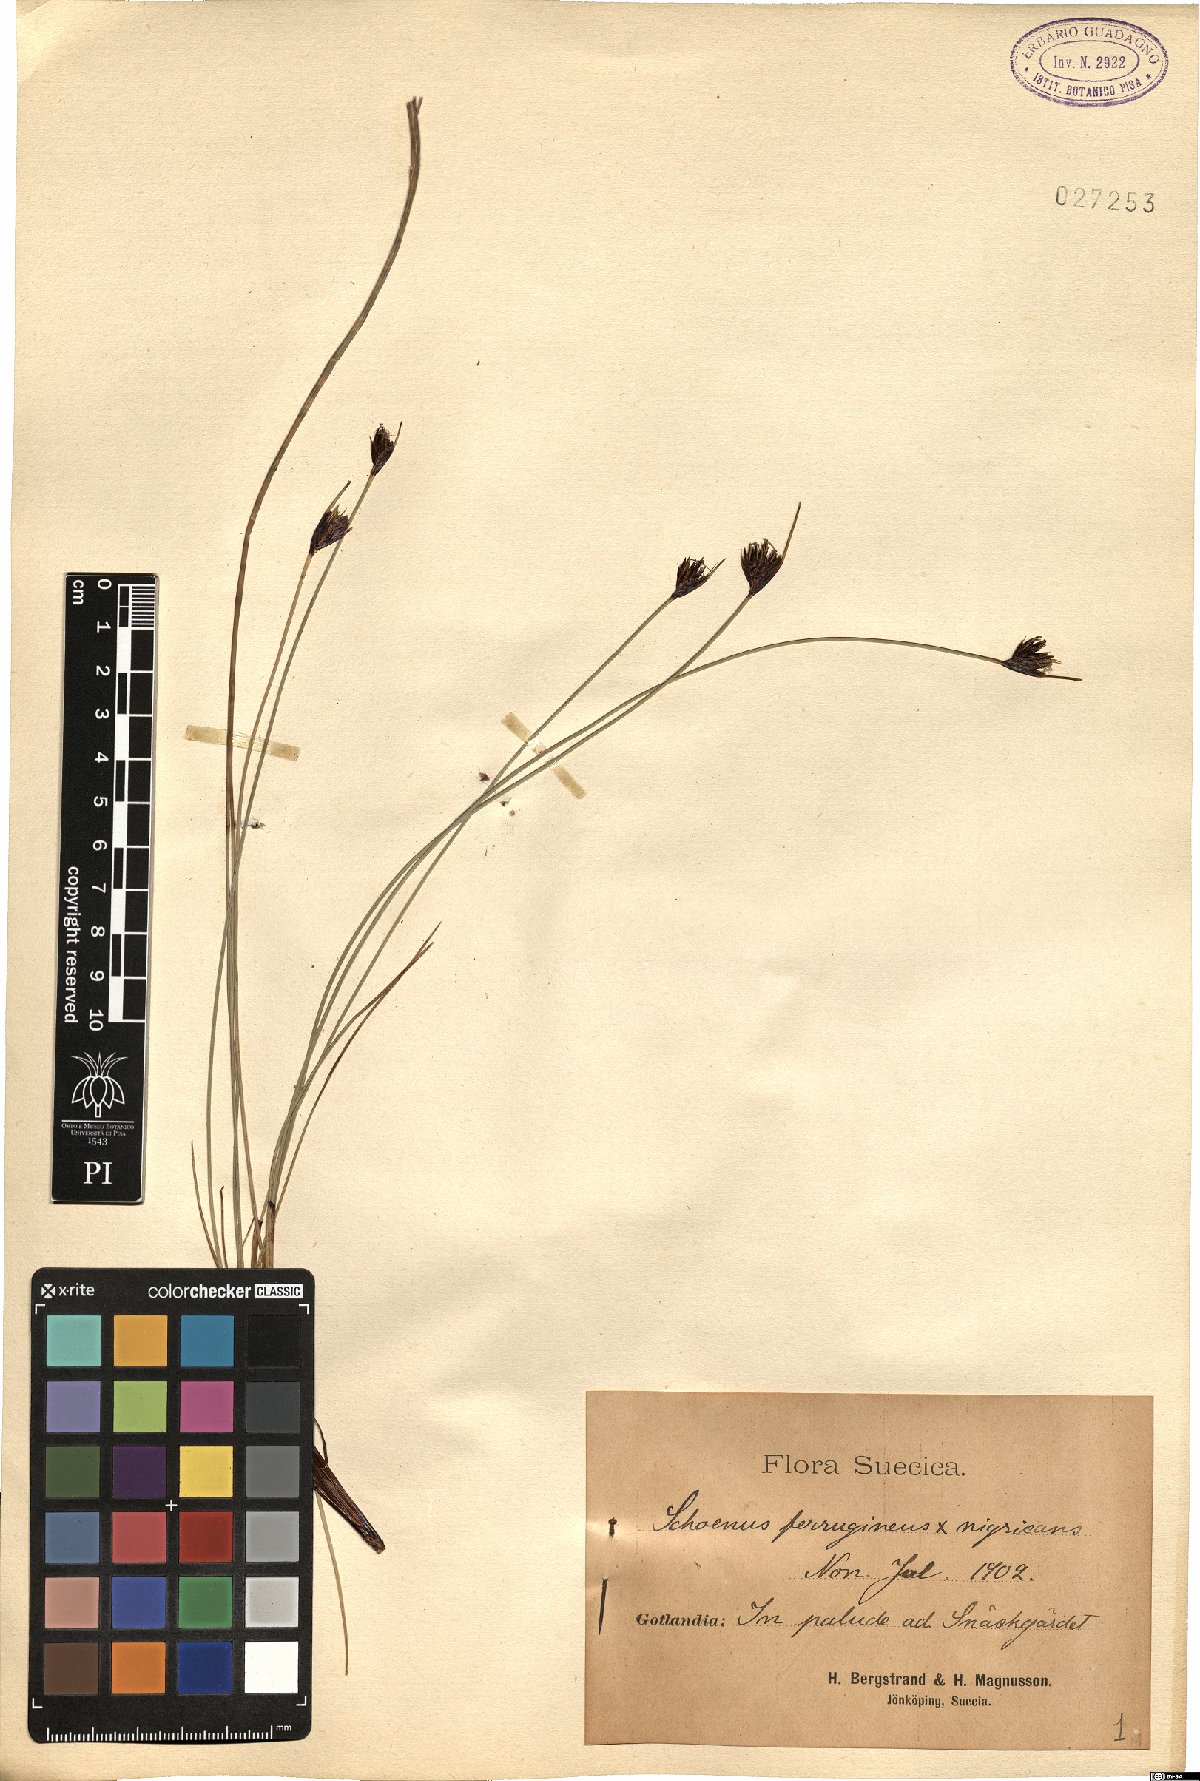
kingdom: Plantae
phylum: Tracheophyta
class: Liliopsida
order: Poales
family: Cyperaceae
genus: Schoenus
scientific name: Schoenus scheuchzeri
